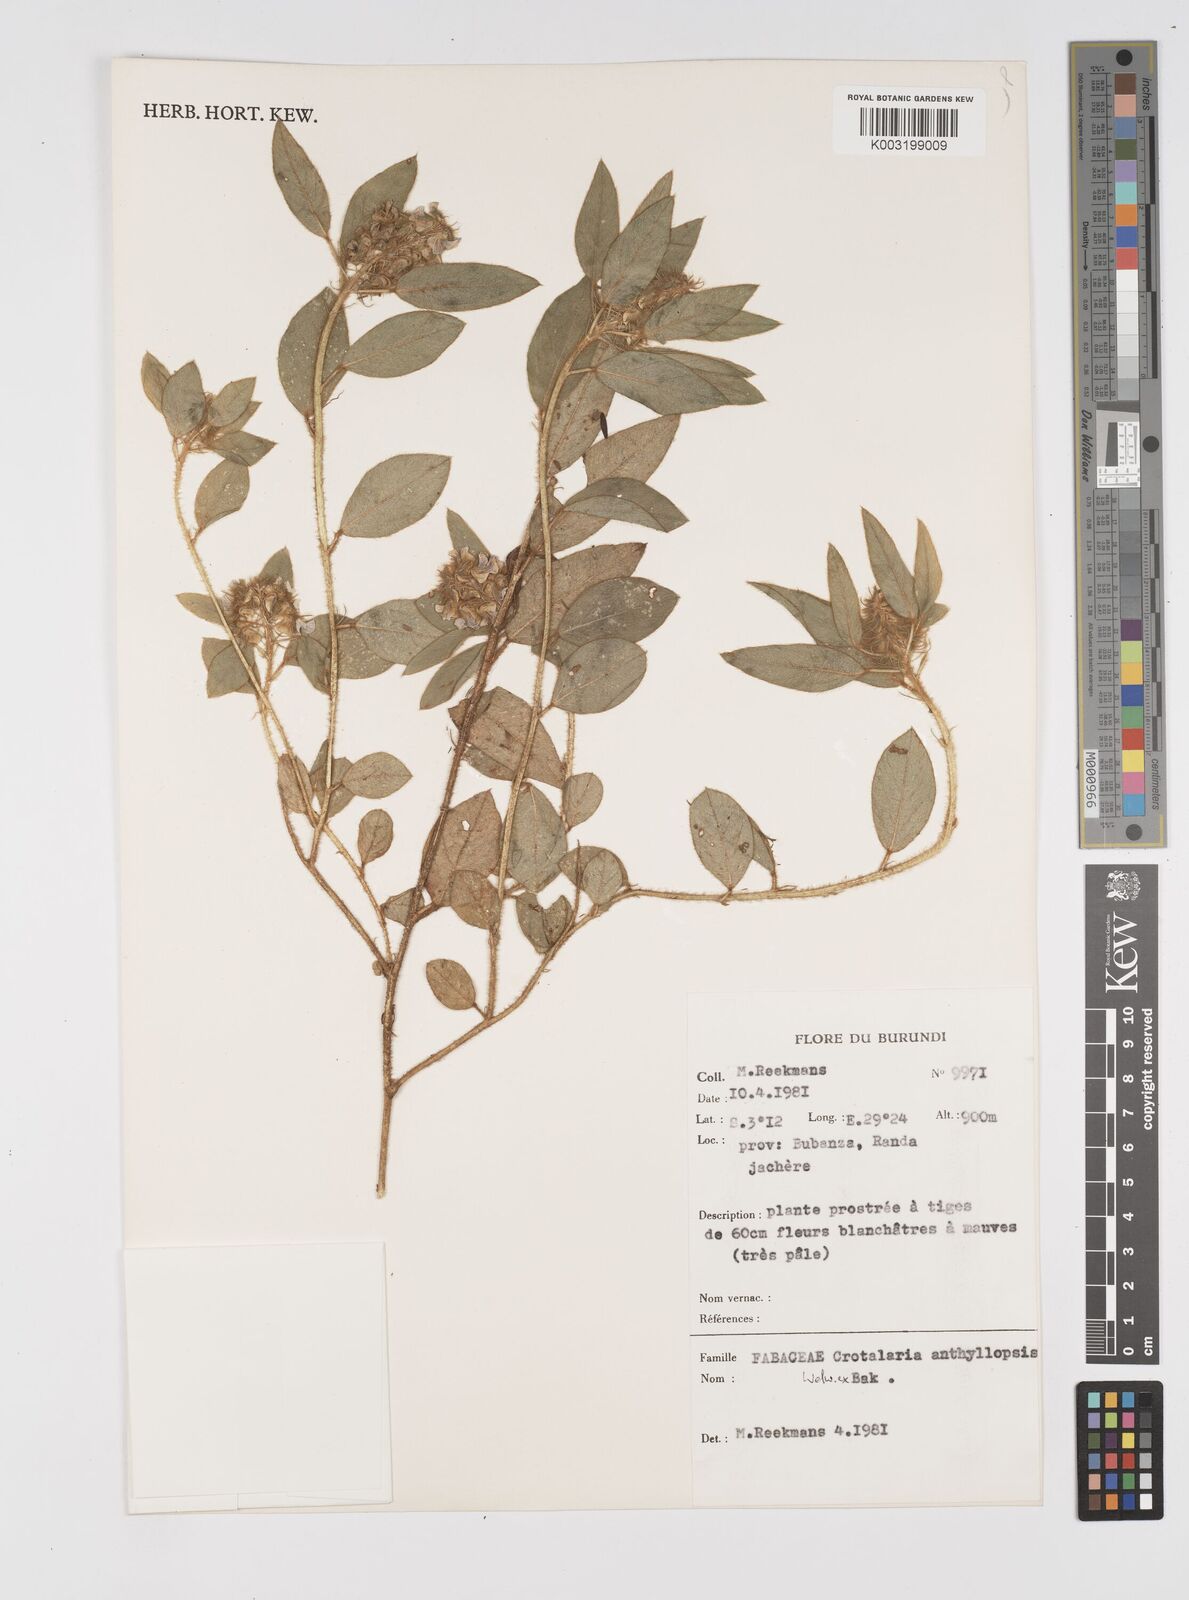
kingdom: Plantae
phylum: Tracheophyta
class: Magnoliopsida
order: Fabales
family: Fabaceae
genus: Crotalaria
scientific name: Crotalaria anthyllopsis
